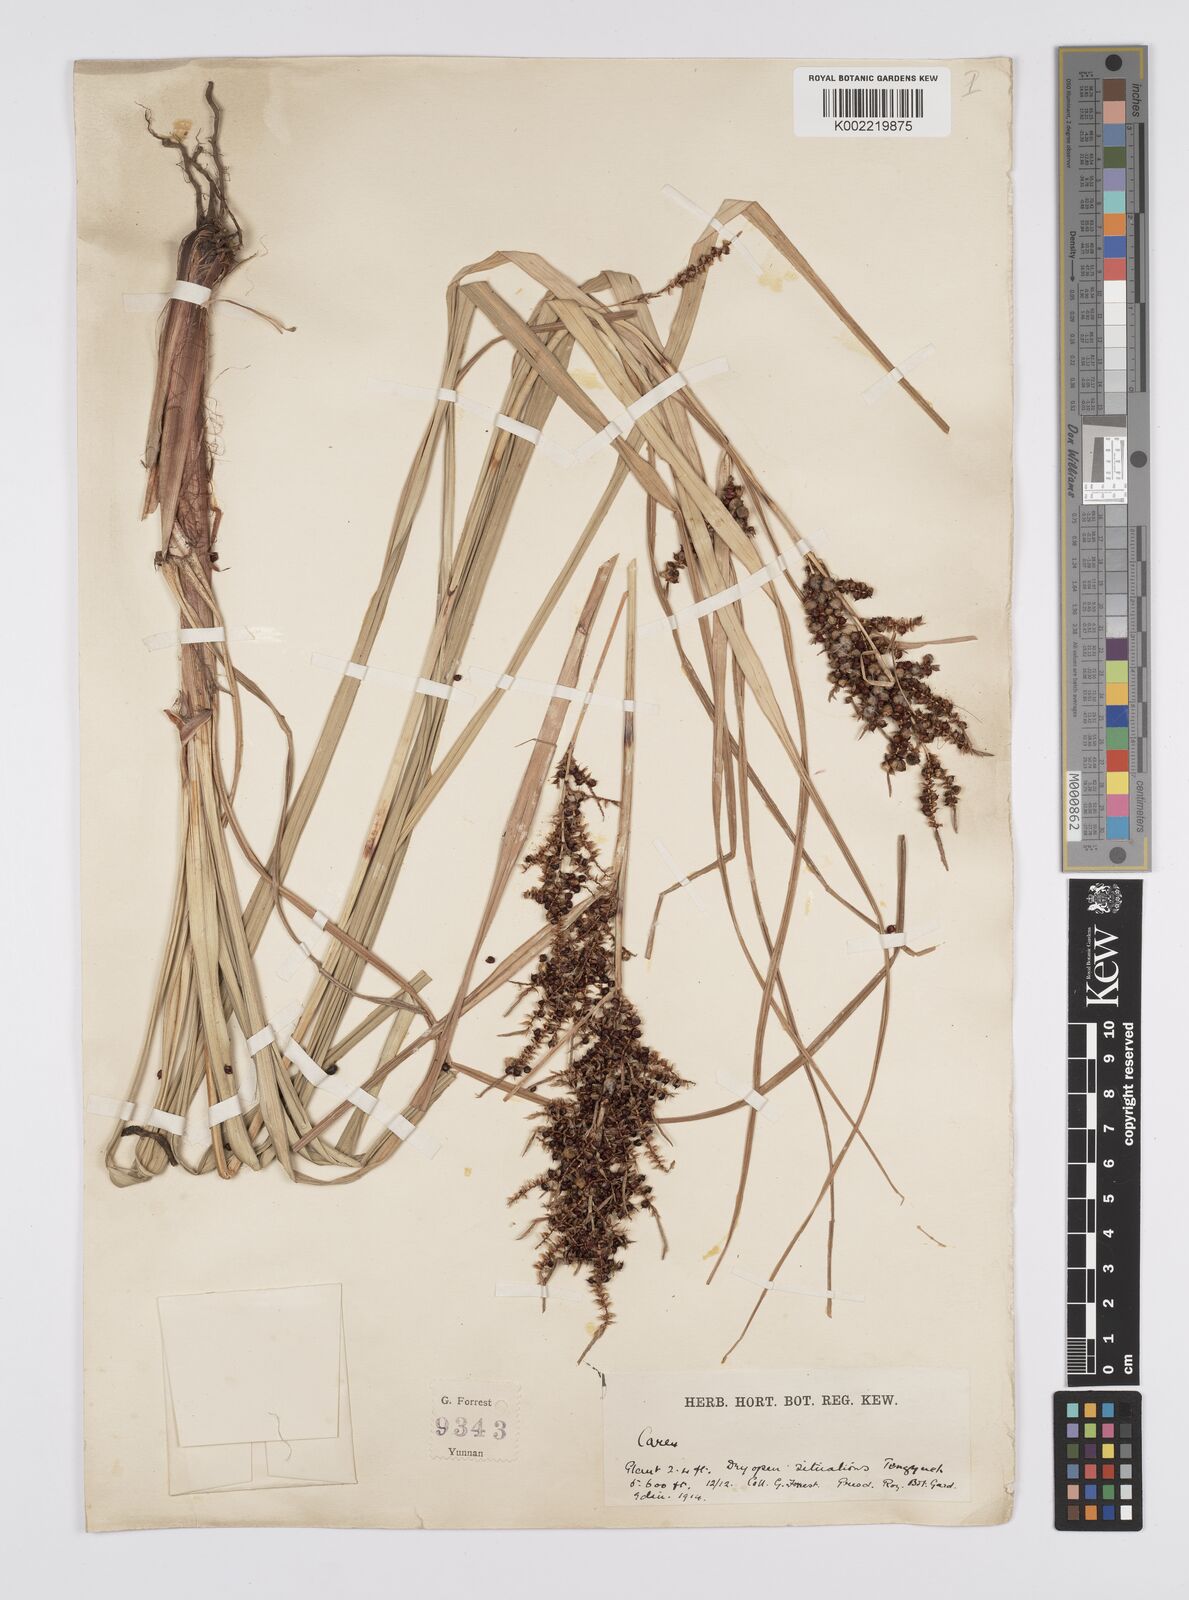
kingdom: Plantae
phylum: Tracheophyta
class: Liliopsida
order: Poales
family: Cyperaceae
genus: Carex
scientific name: Carex baccans
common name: Crimson seeded sedge
